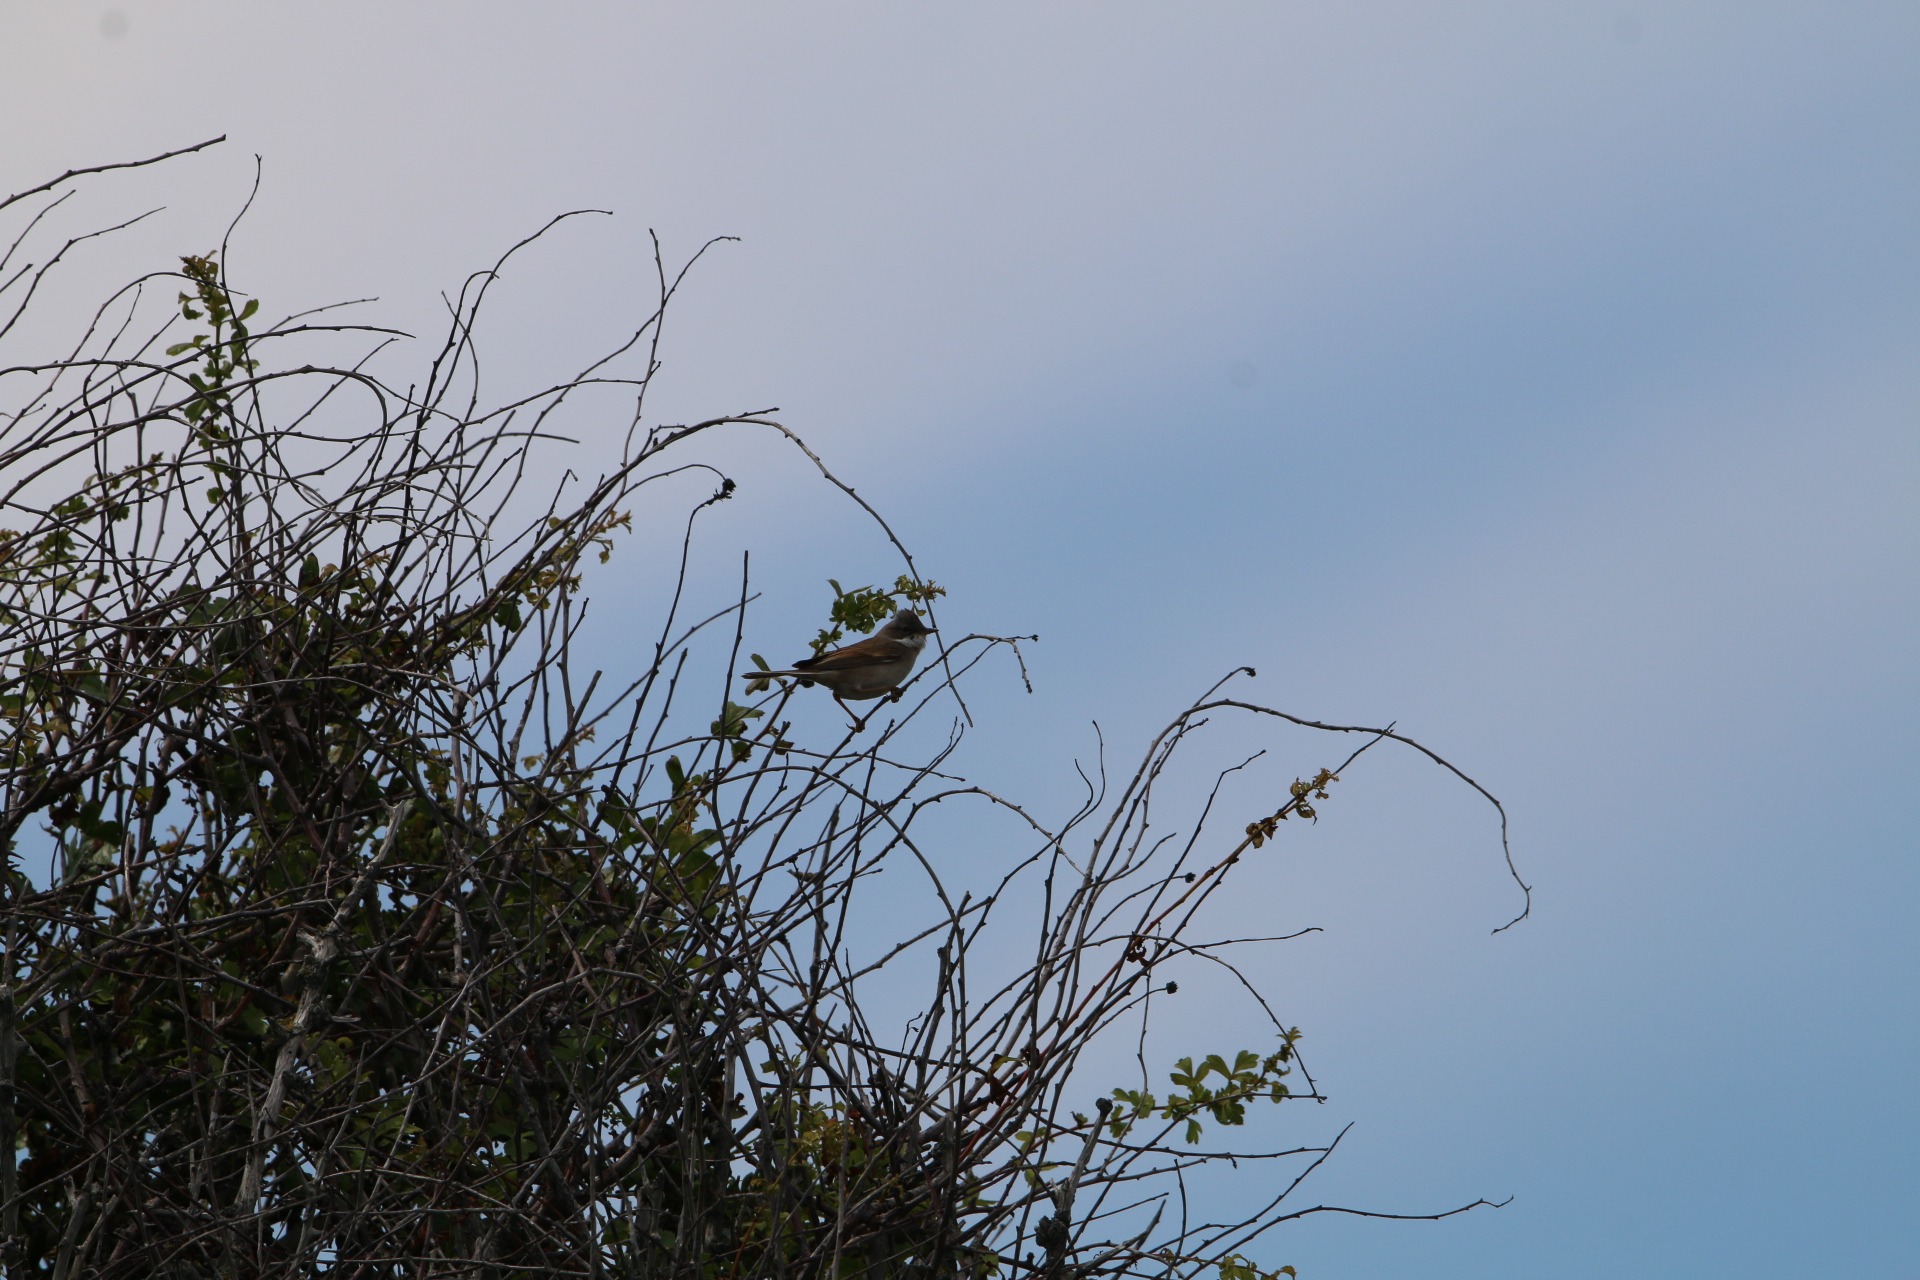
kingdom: Animalia
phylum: Chordata
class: Aves
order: Passeriformes
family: Sylviidae
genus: Sylvia
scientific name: Sylvia communis
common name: Tornsanger
